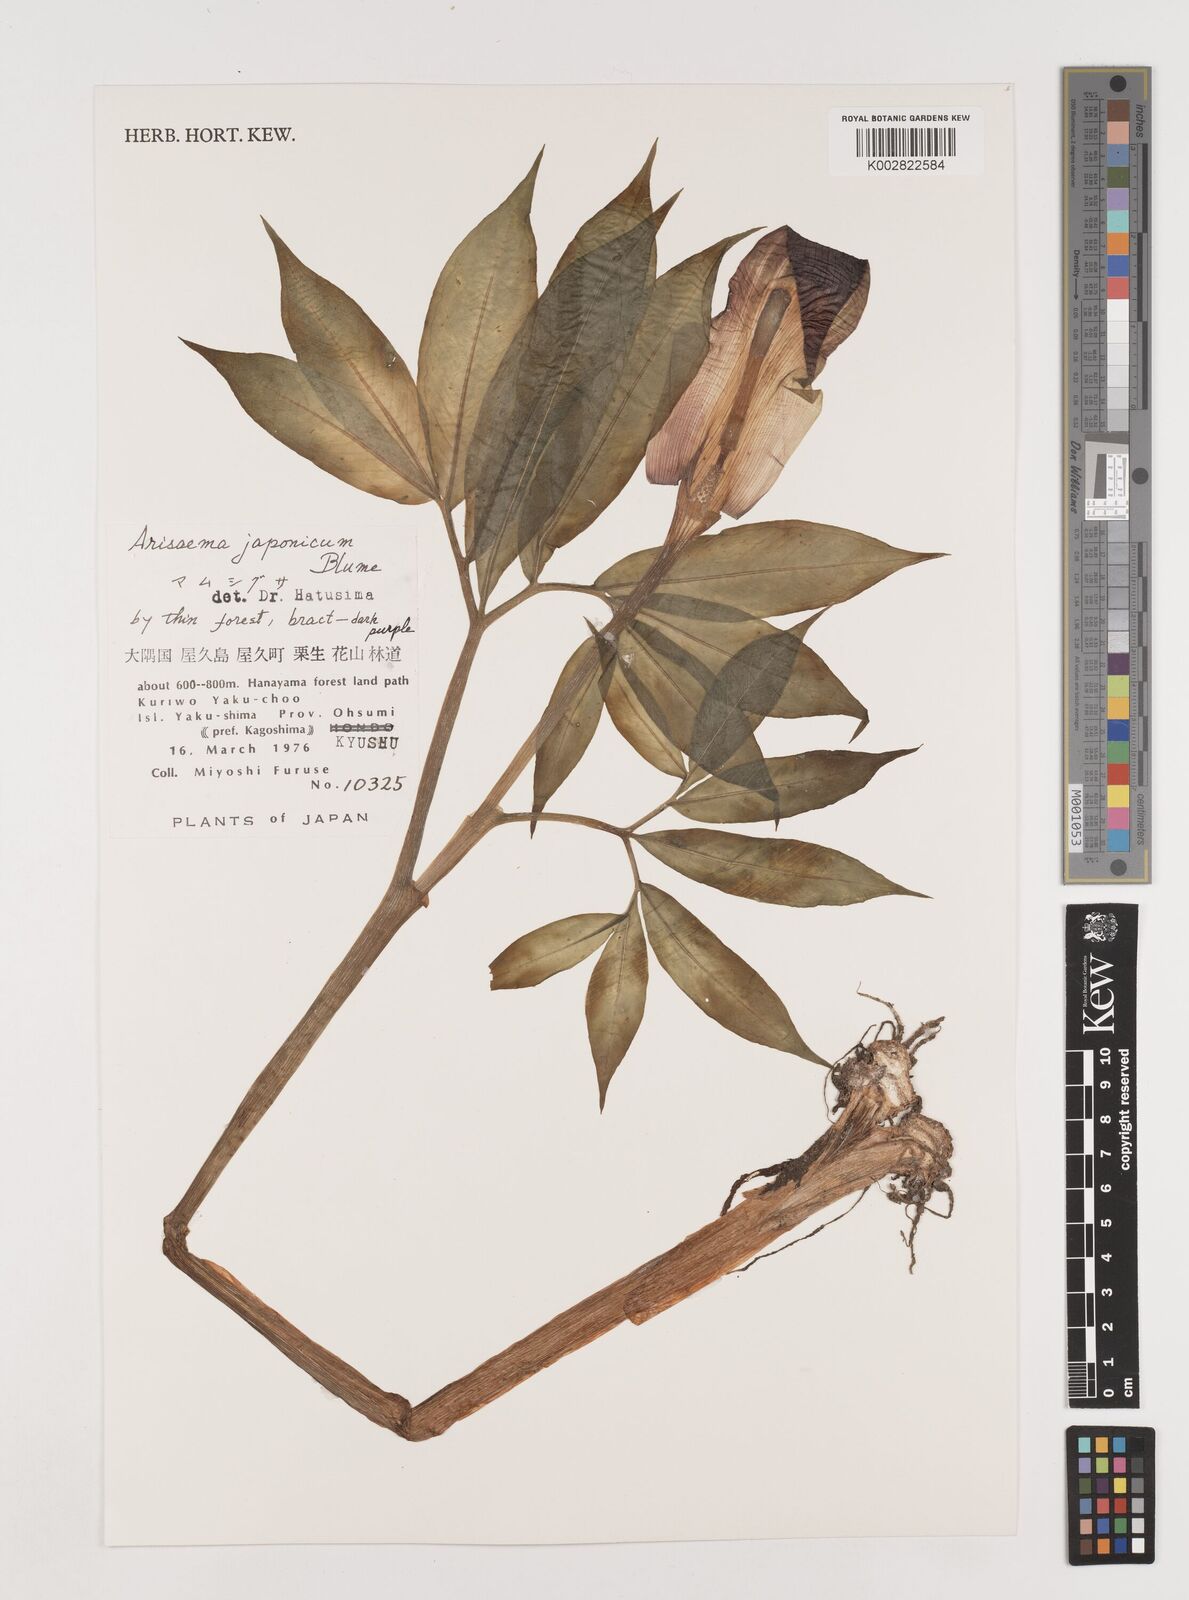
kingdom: Plantae
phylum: Tracheophyta
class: Liliopsida
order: Alismatales
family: Araceae
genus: Arisaema
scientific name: Arisaema serratum
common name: Japanese arisaema
